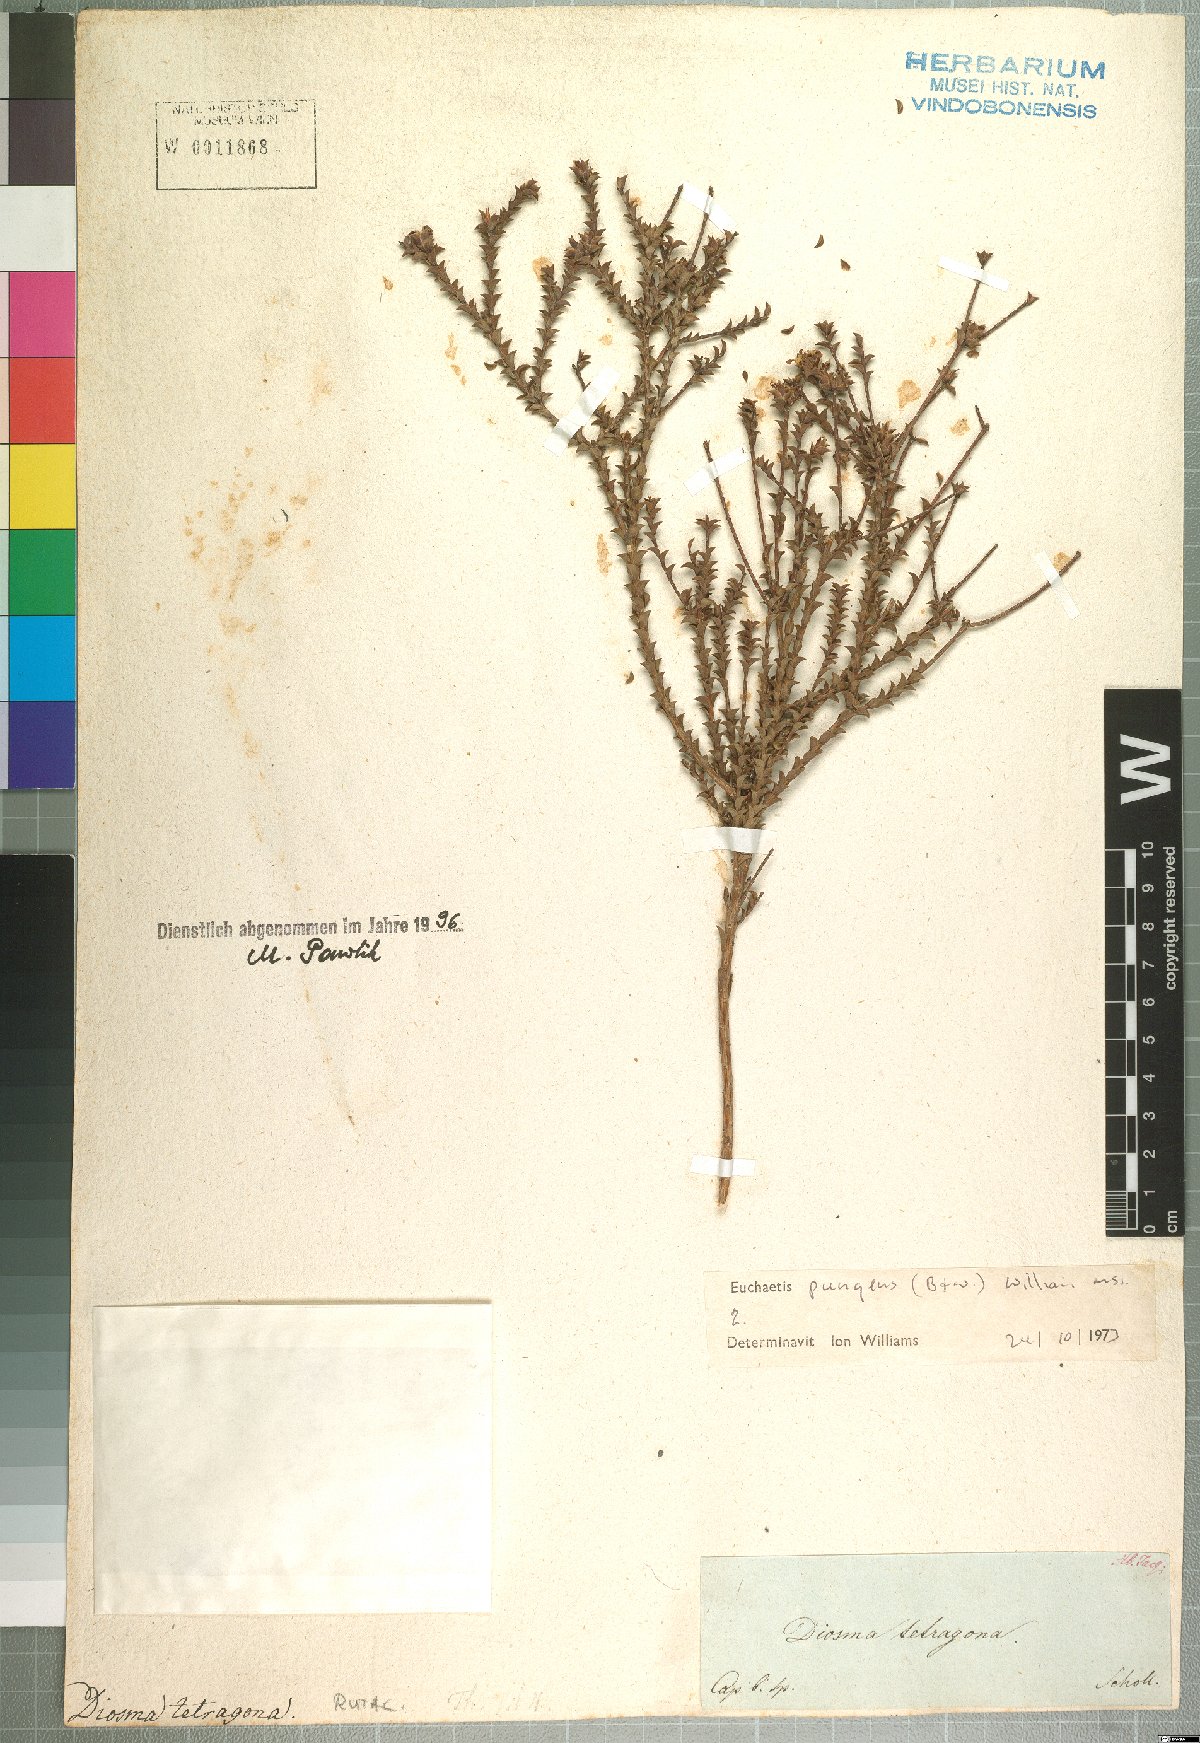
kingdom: Plantae
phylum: Tracheophyta
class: Magnoliopsida
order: Sapindales
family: Rutaceae
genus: Euchaetis
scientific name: Euchaetis pungens
